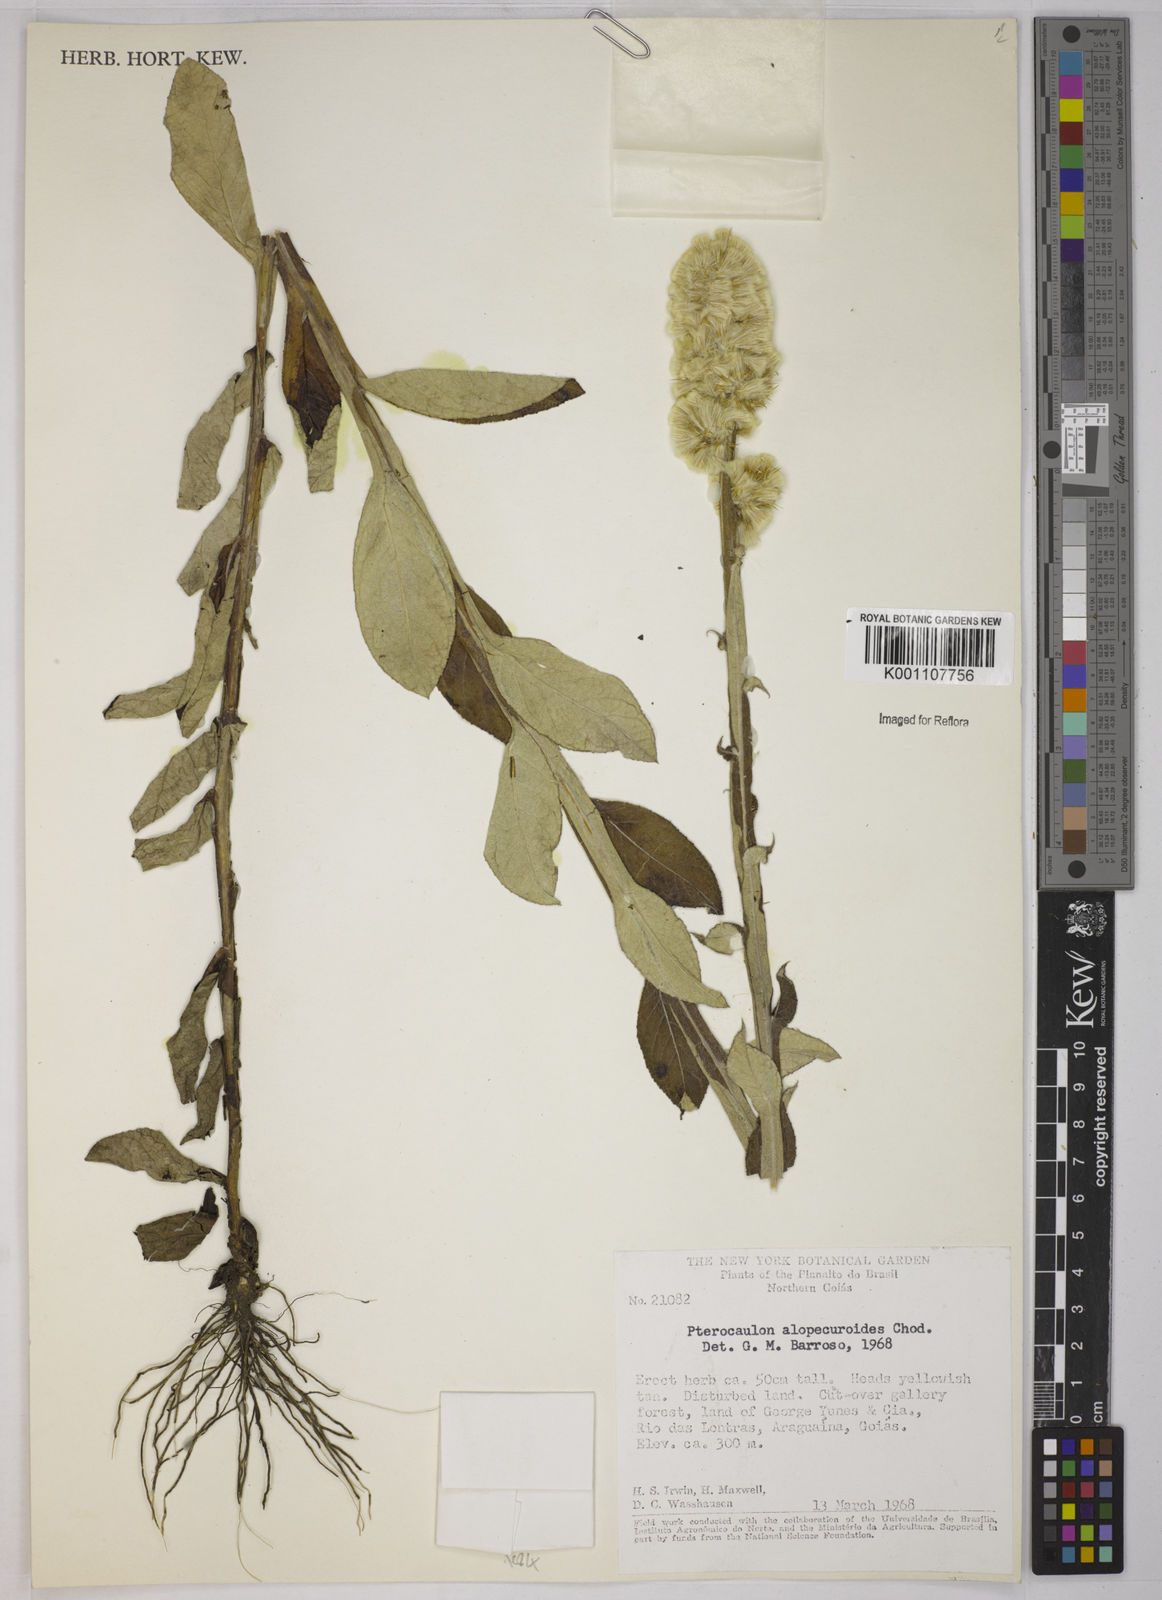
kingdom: Plantae
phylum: Tracheophyta
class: Magnoliopsida
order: Asterales
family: Asteraceae
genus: Pterocaulon
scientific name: Pterocaulon alopecuroides
